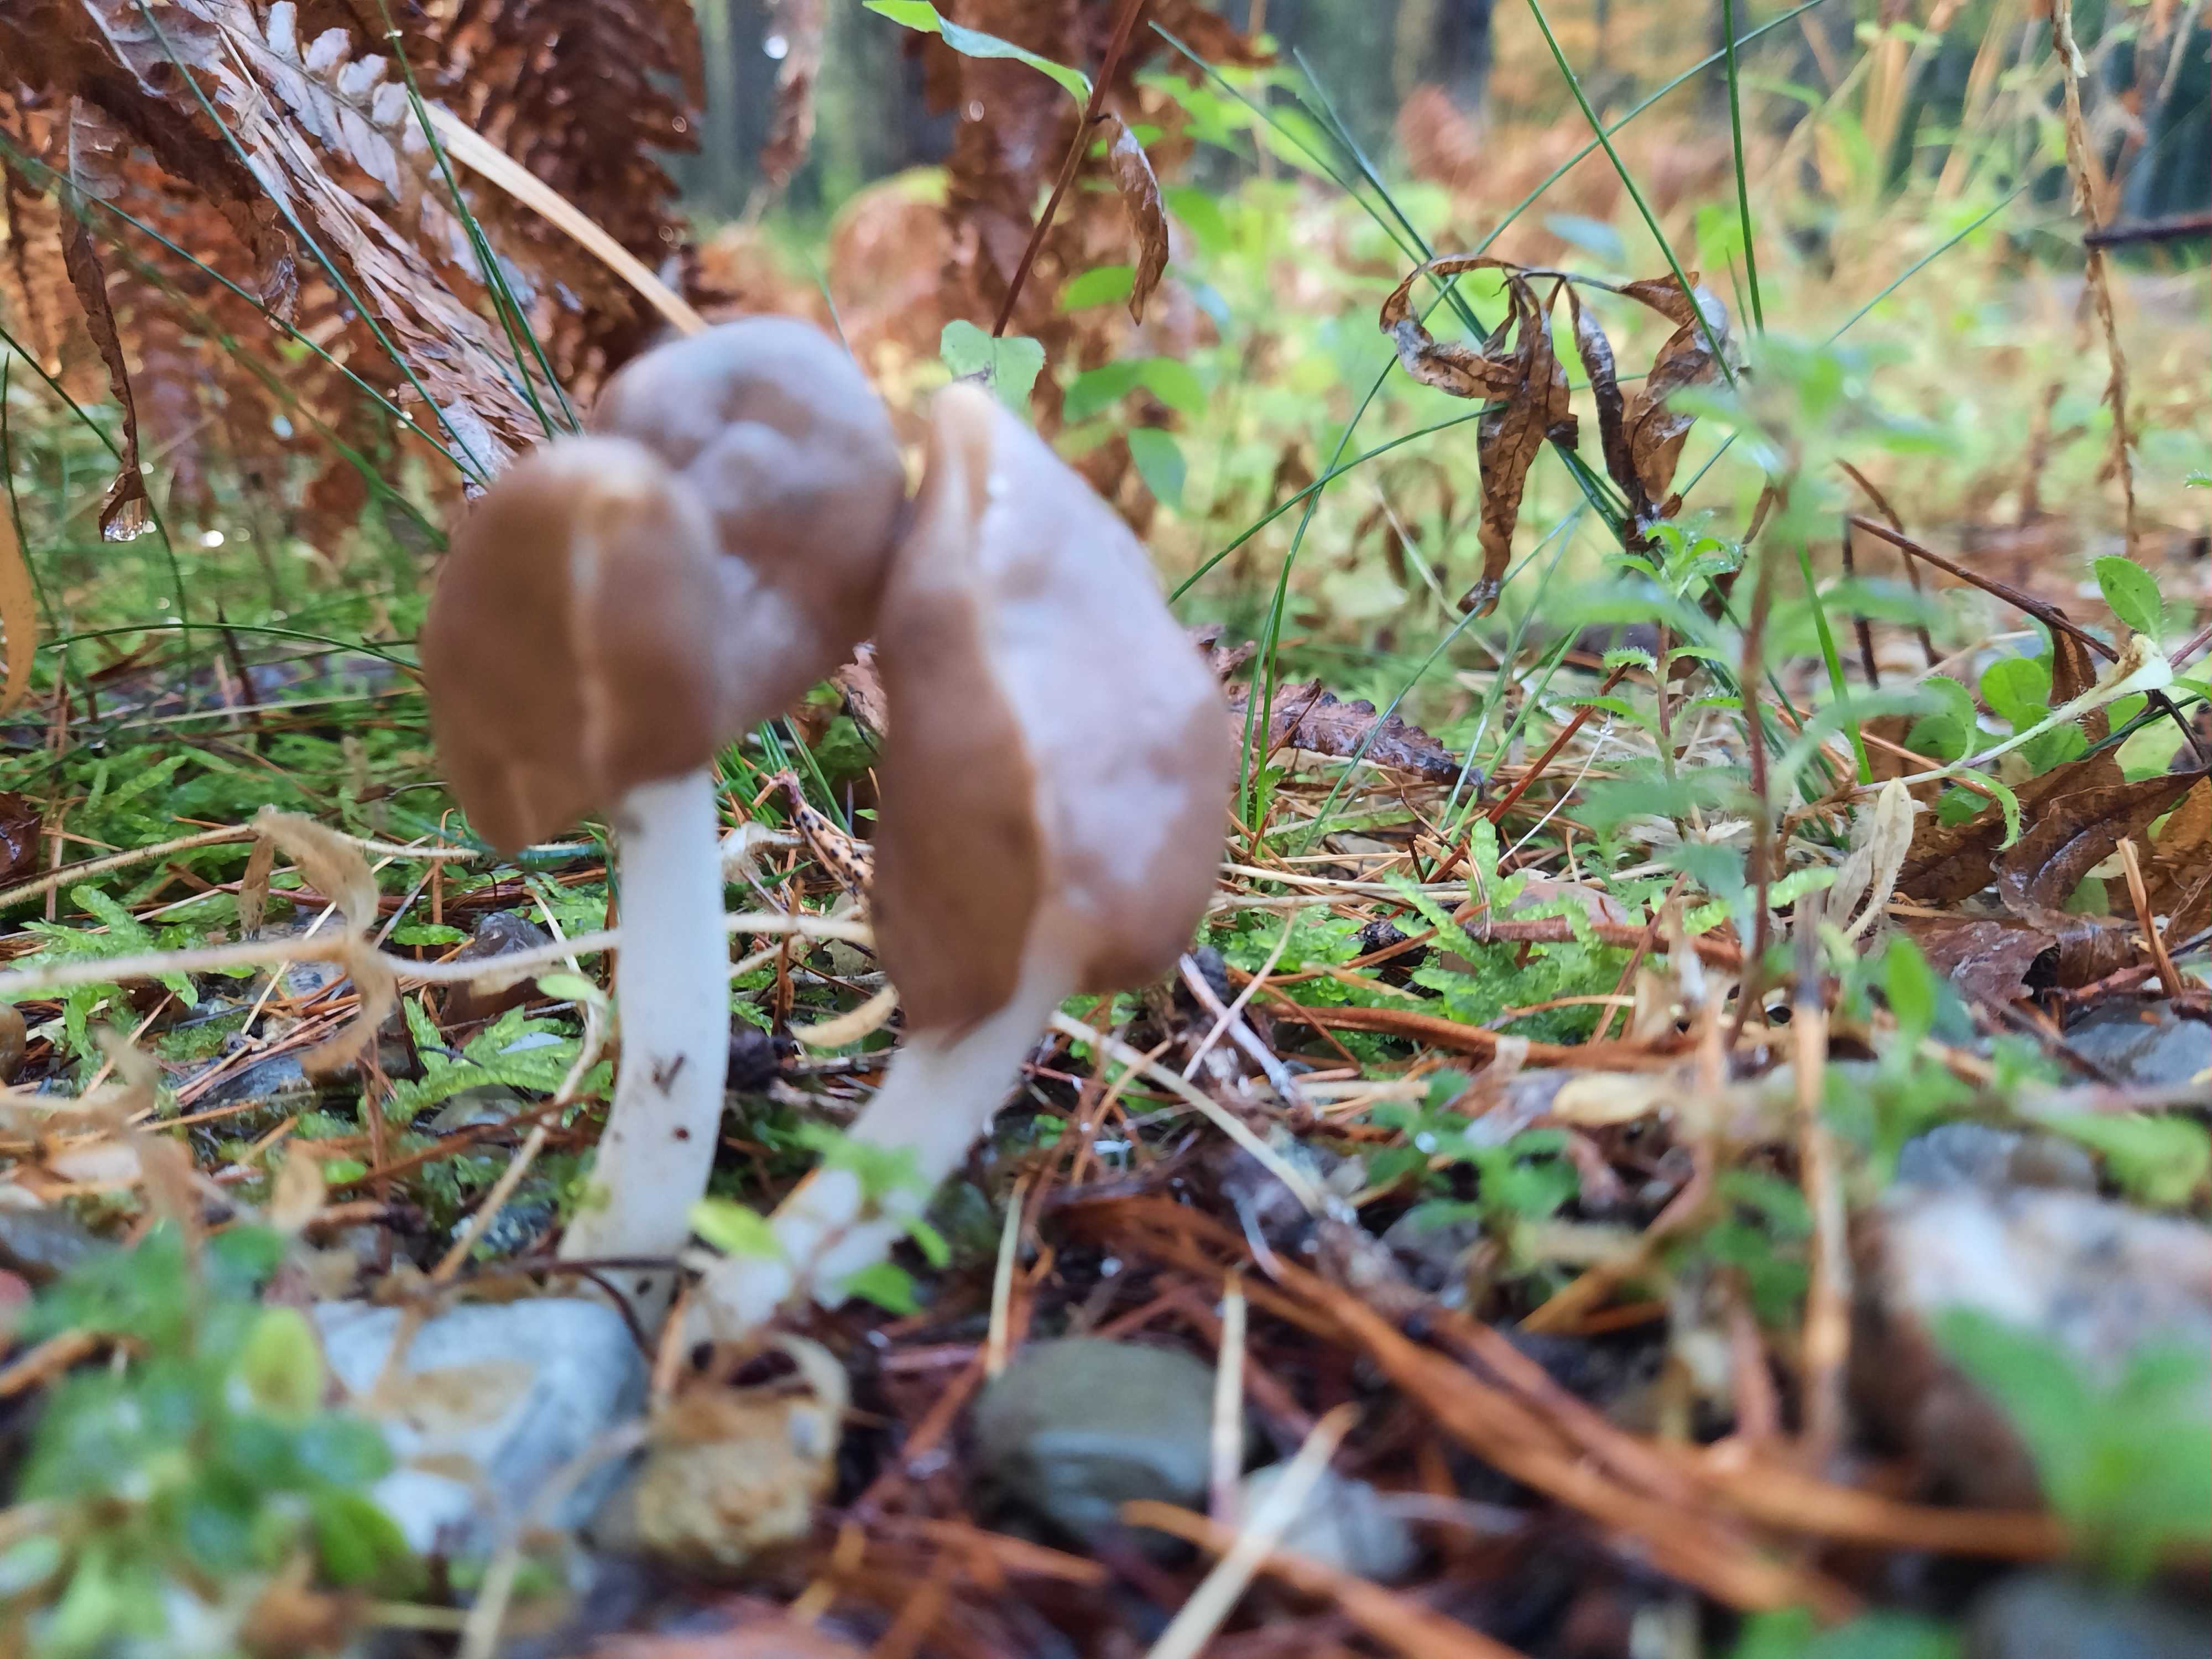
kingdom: Fungi
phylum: Ascomycota
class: Pezizomycetes
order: Pezizales
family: Helvellaceae
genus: Helvella
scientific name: Helvella elastica
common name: elastik-foldhat
